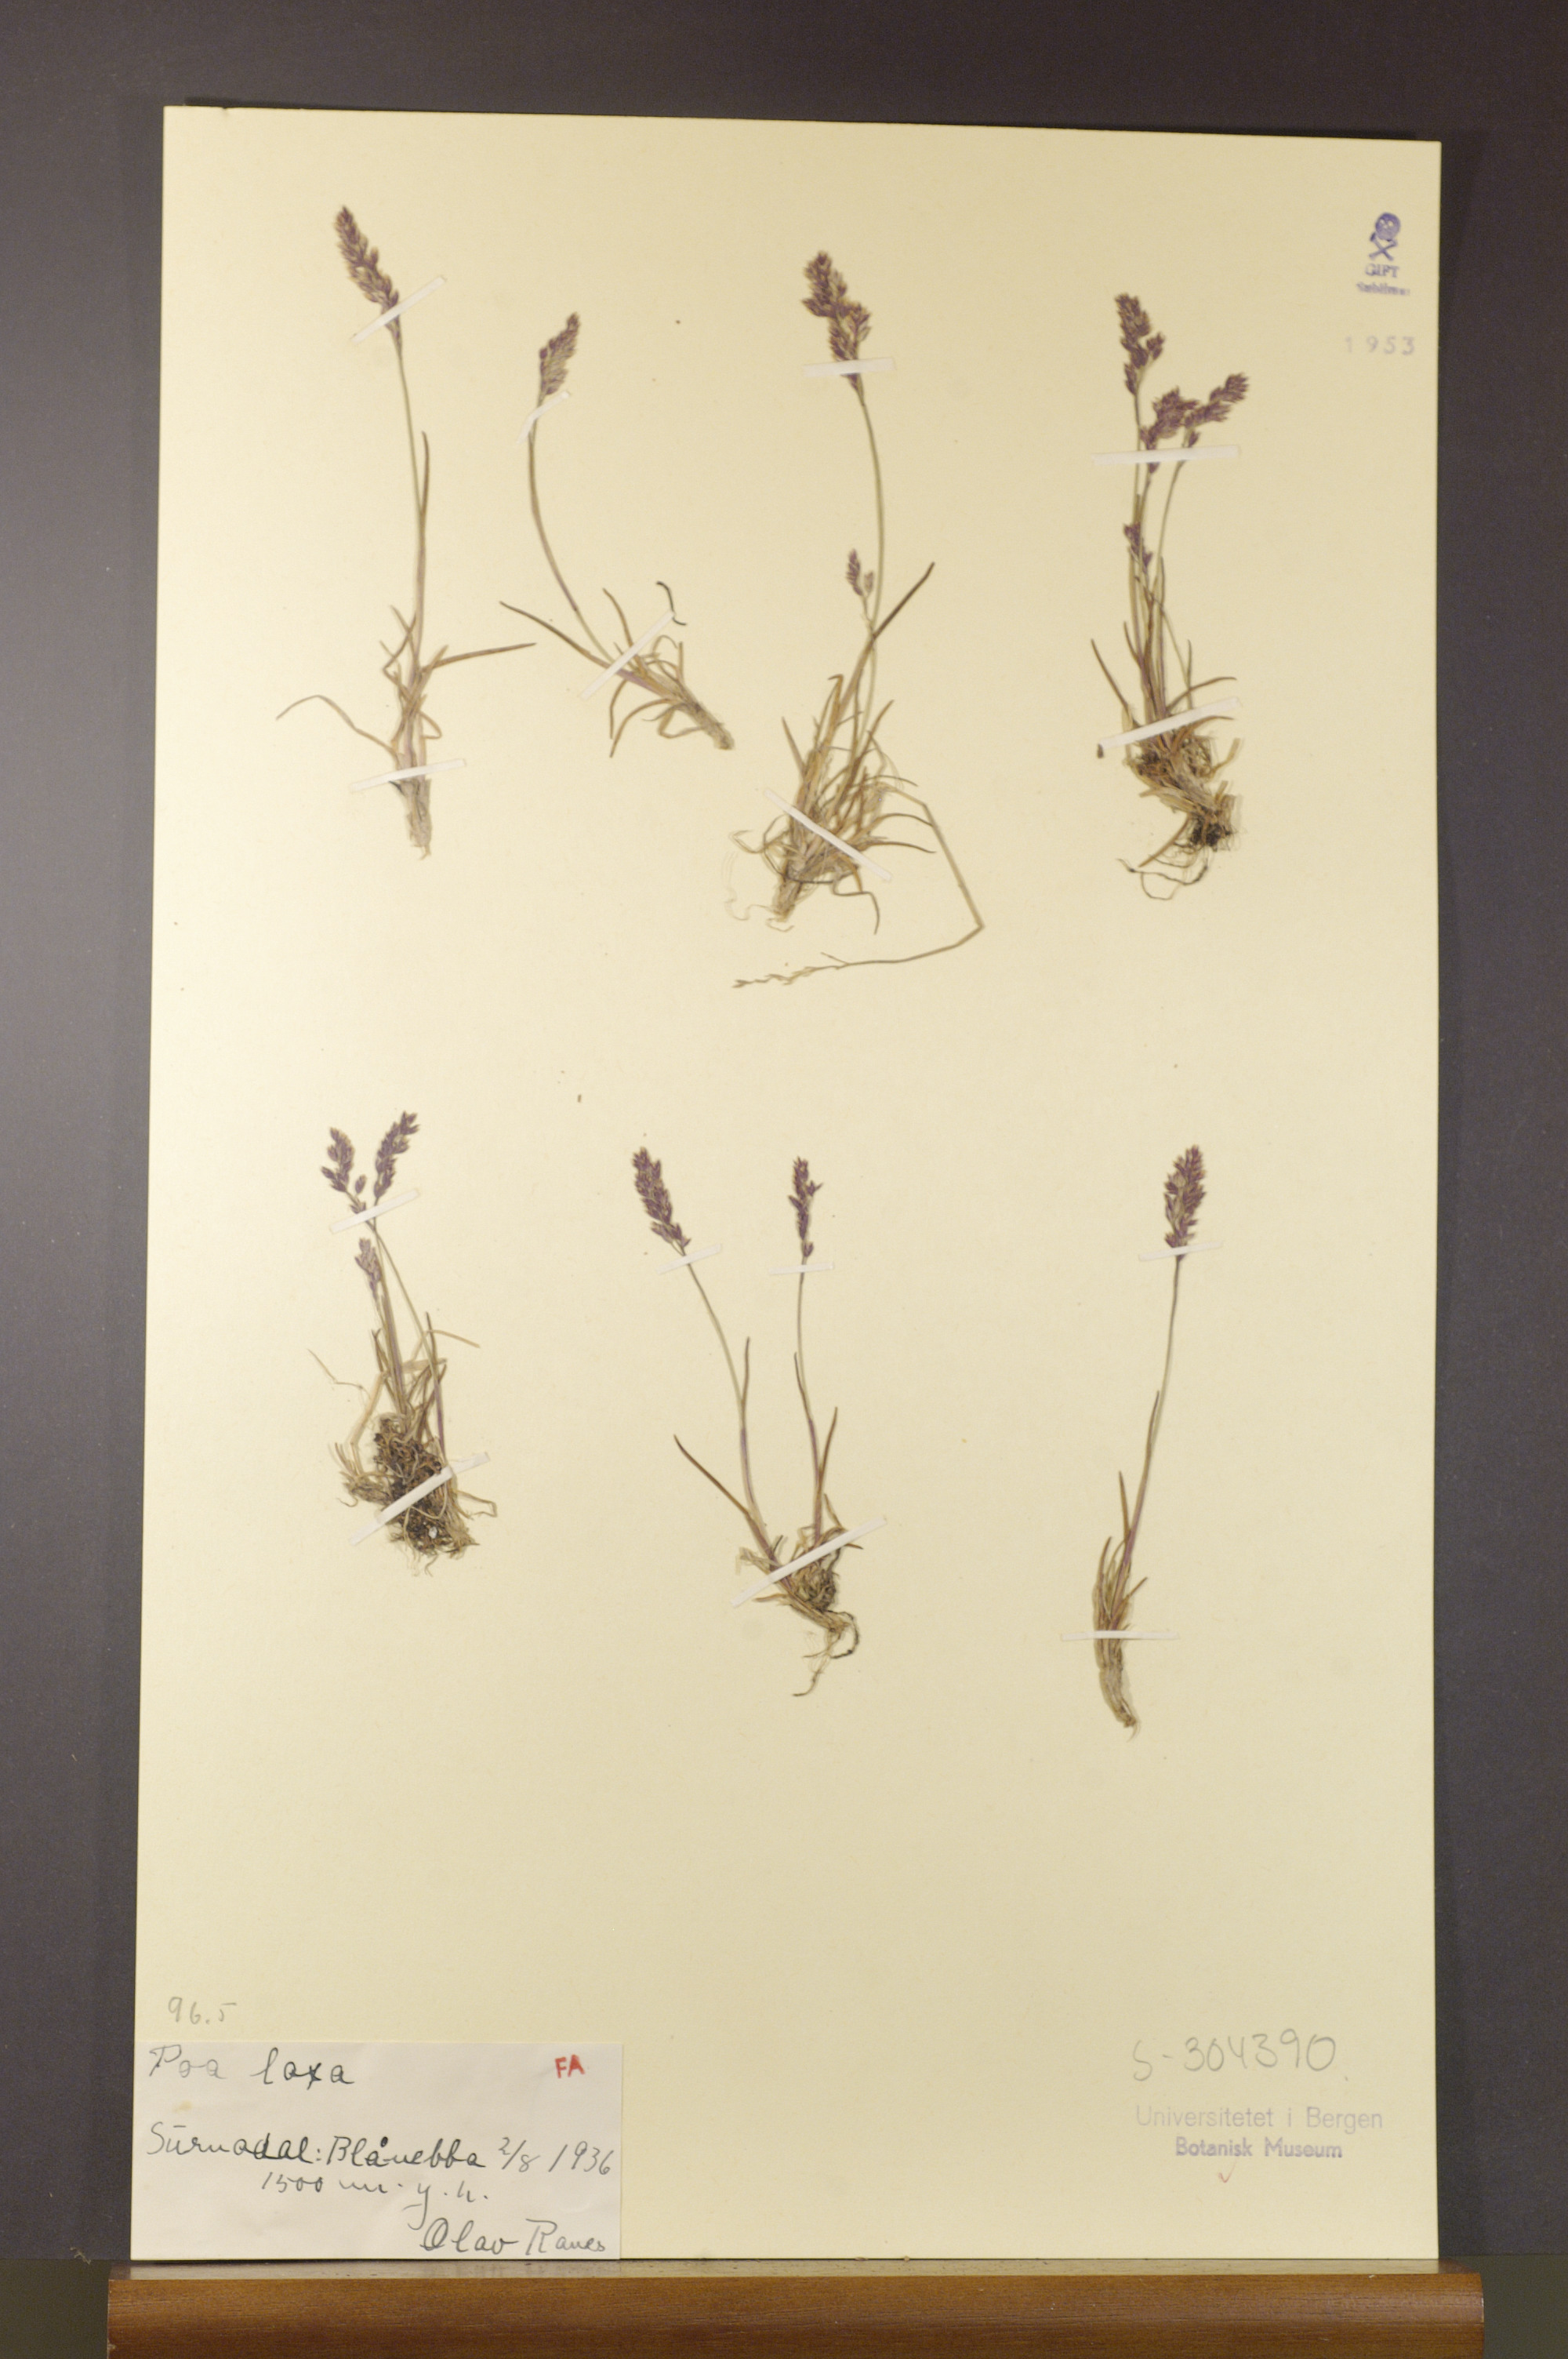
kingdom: Plantae
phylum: Tracheophyta
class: Liliopsida
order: Poales
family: Poaceae
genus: Poa
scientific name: Poa flexuosa
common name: Wavy meadow-grass
